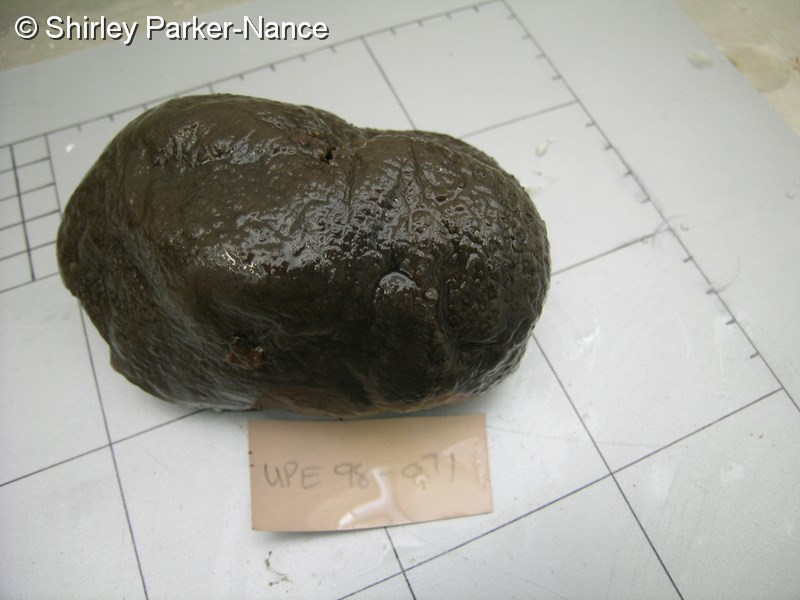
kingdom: Animalia
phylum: Chordata
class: Ascidiacea
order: Aplousobranchia
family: Polyclinidae
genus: Aplidiopsis
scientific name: Aplidiopsis
